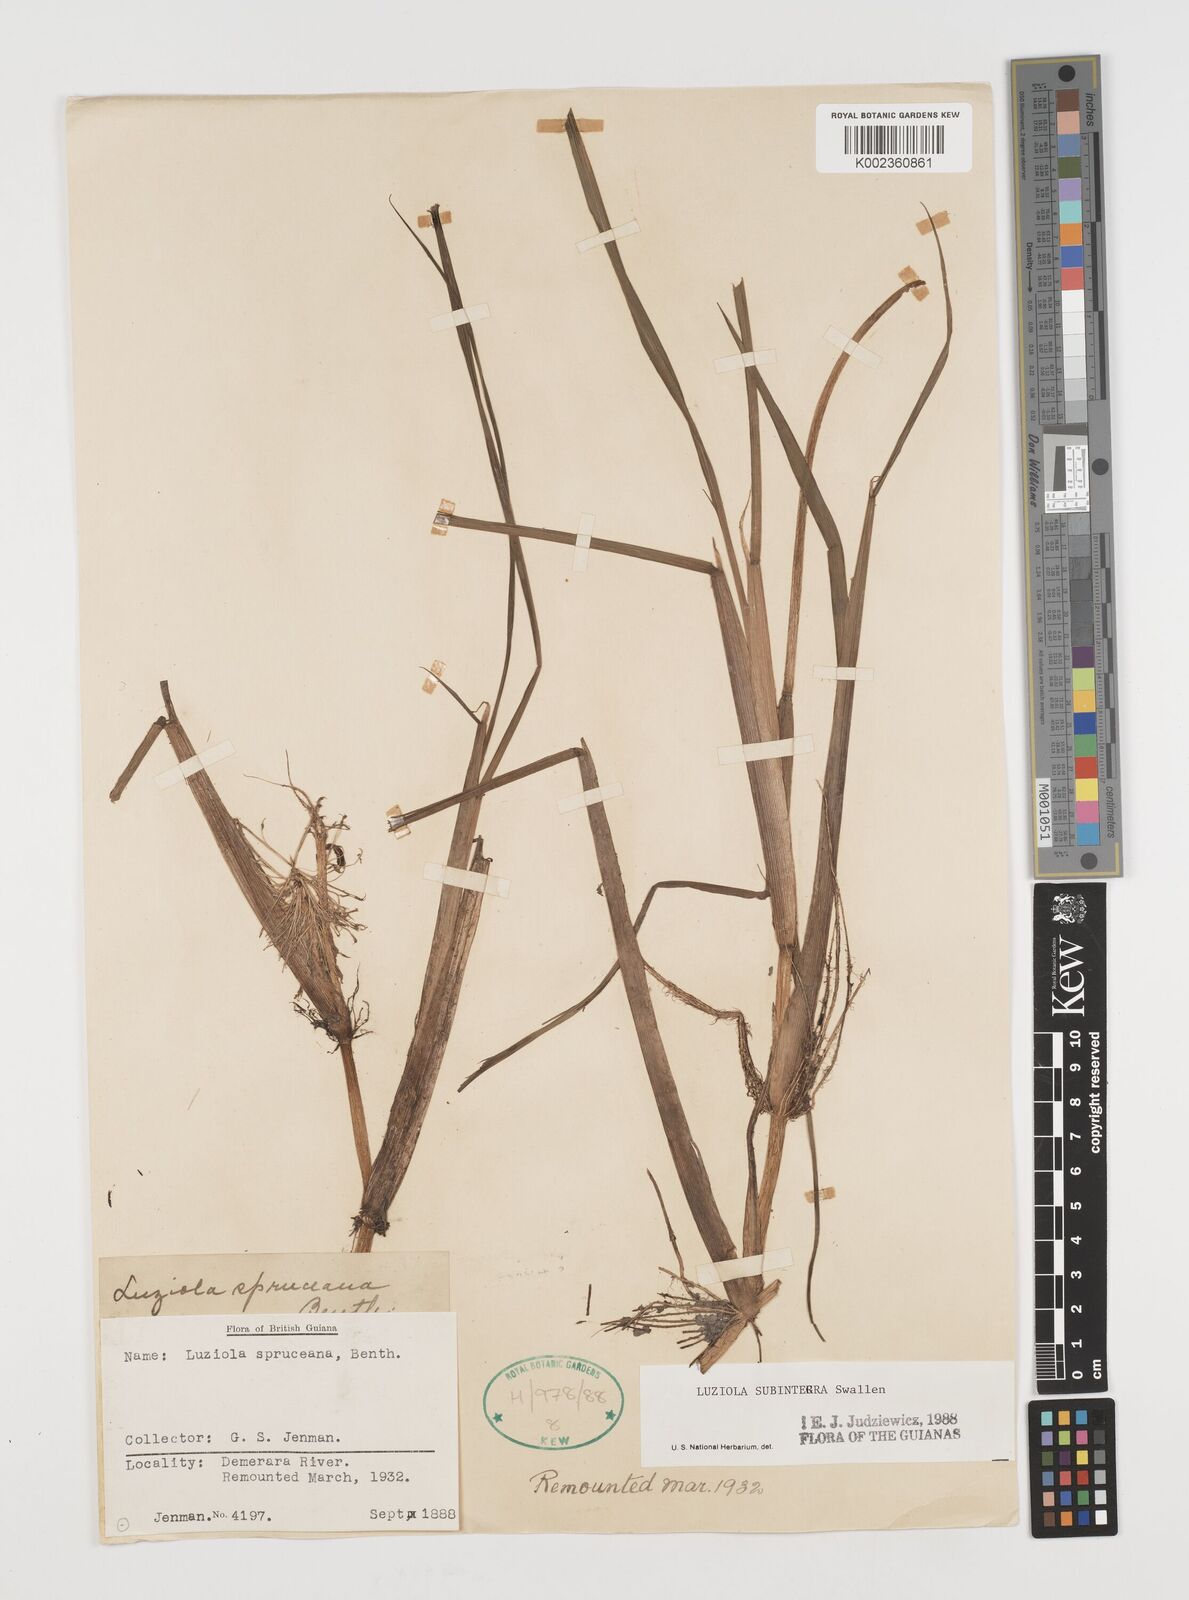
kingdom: Plantae
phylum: Tracheophyta
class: Liliopsida
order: Poales
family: Poaceae
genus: Luziola
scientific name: Luziola subintegra
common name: Large watergrass
